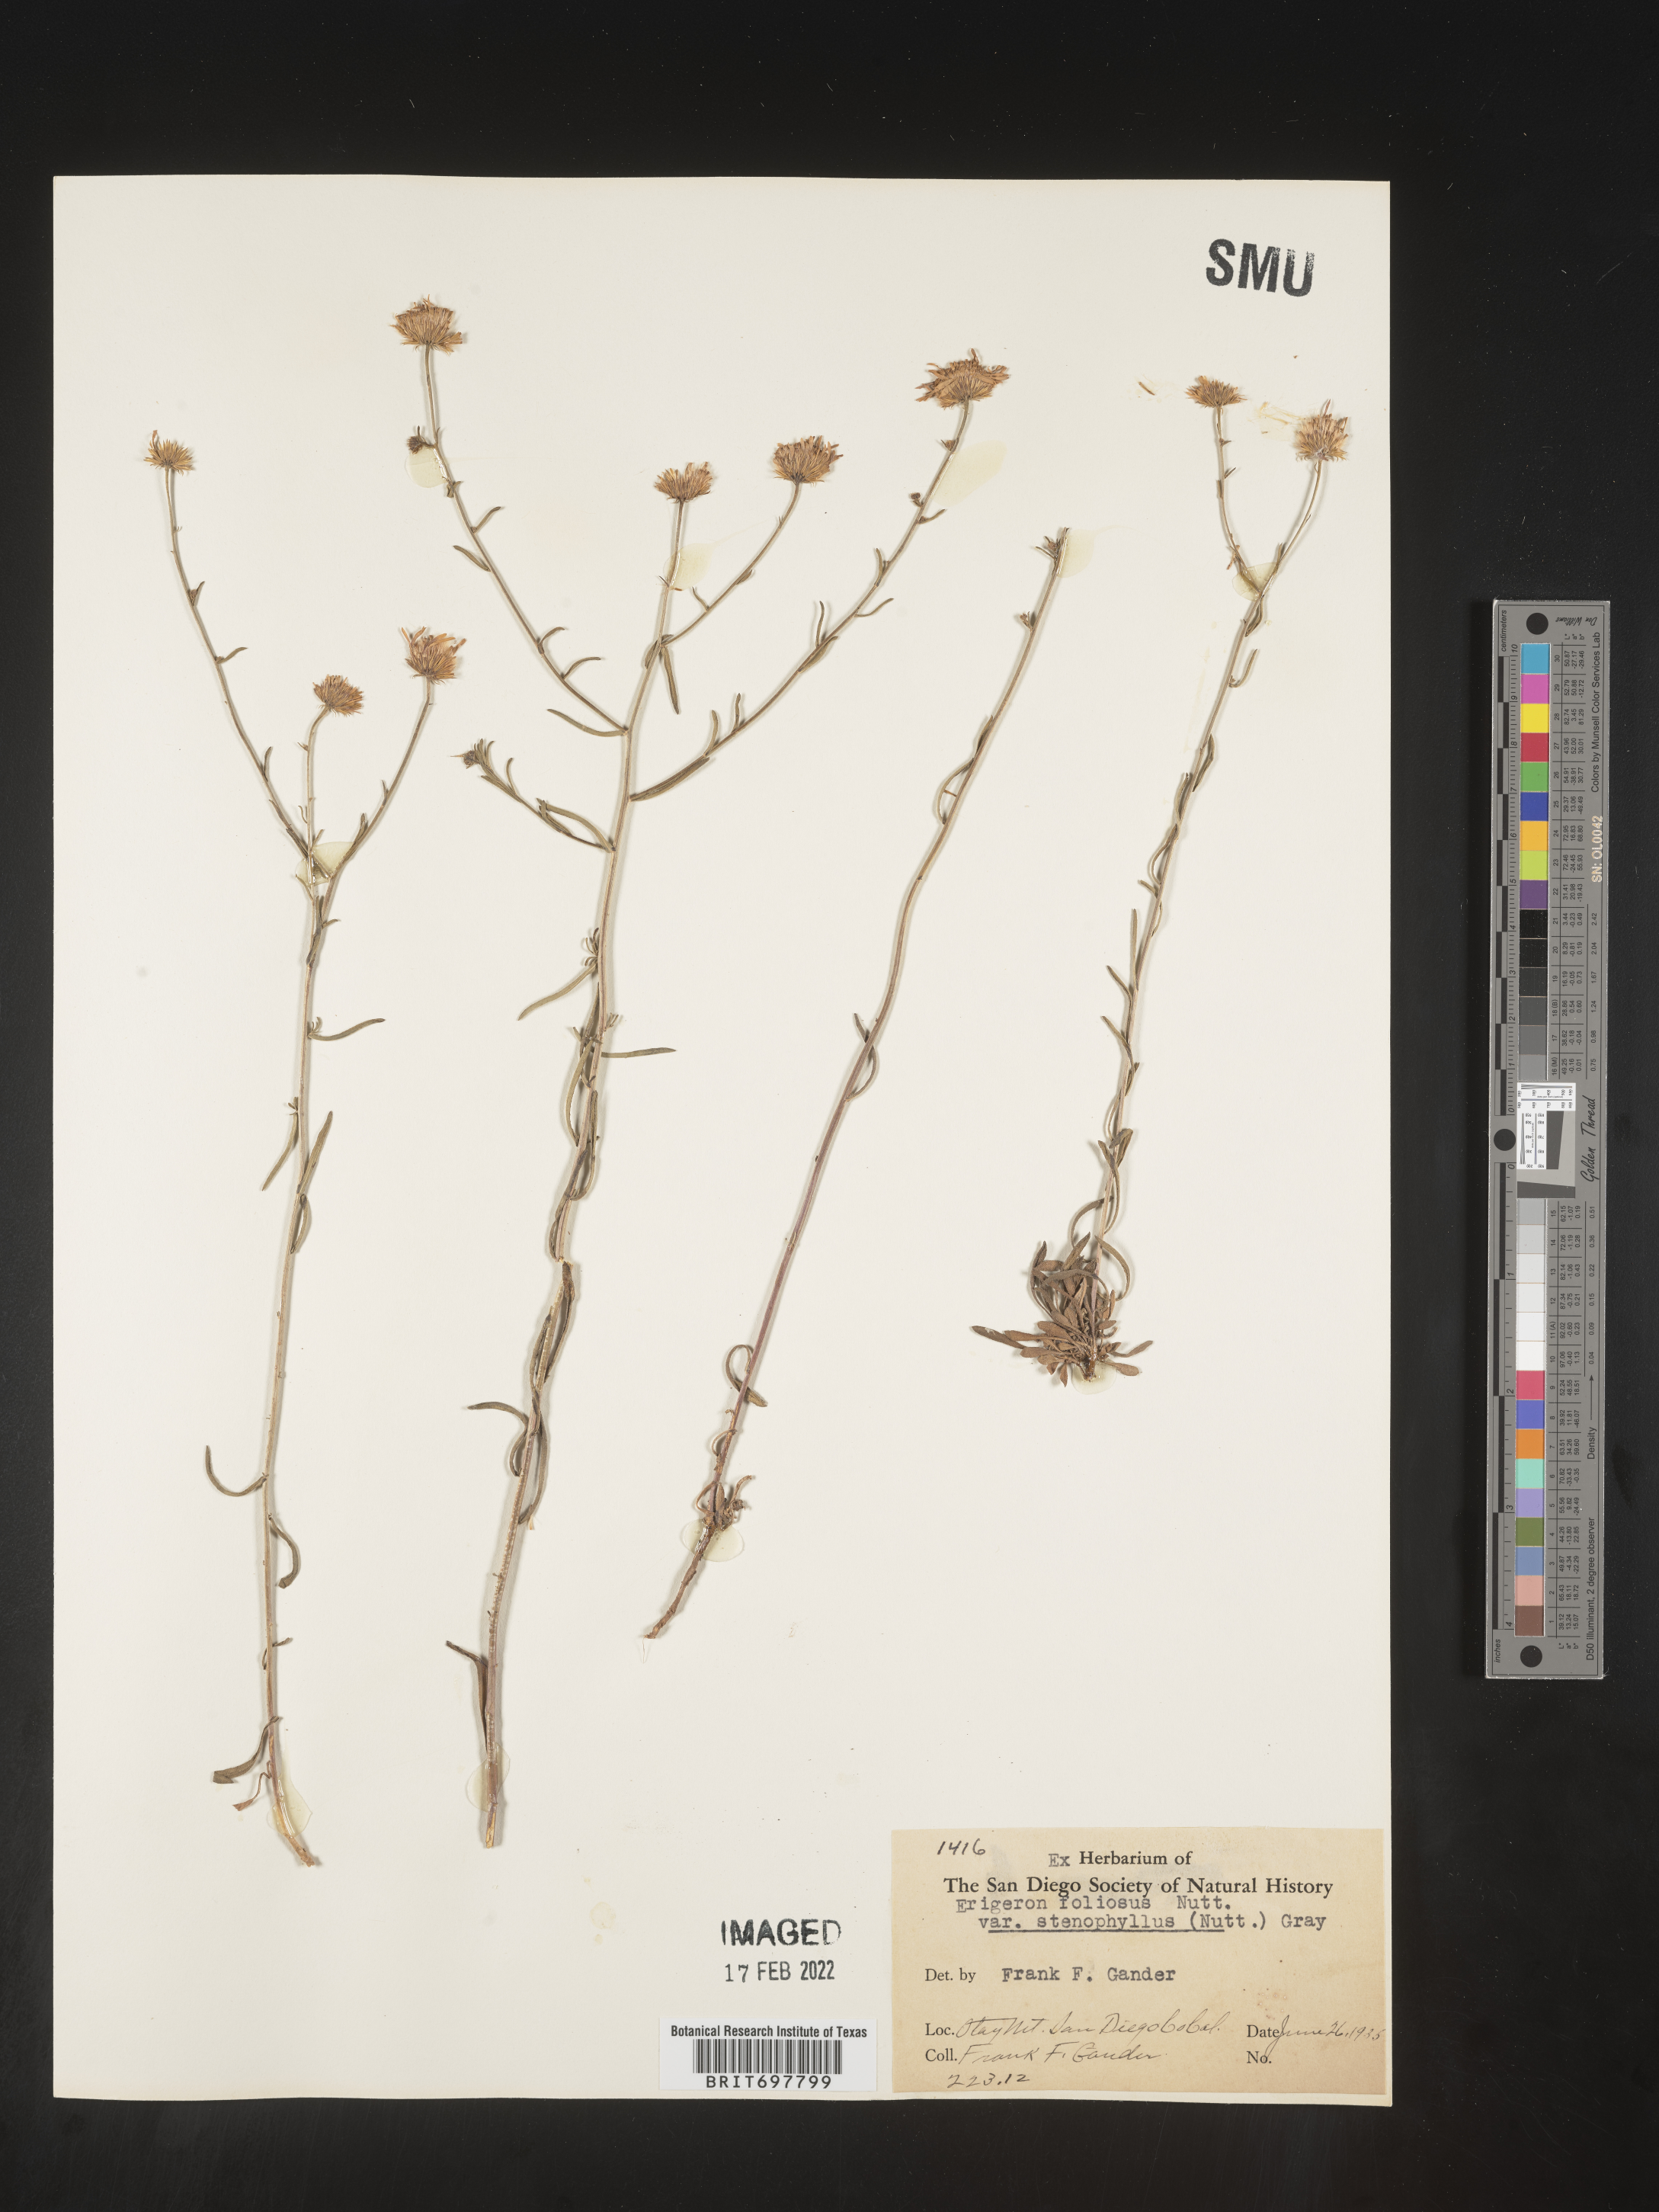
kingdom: Plantae
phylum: Tracheophyta
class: Magnoliopsida
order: Asterales
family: Asteraceae
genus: Erigeron
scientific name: Erigeron foliosus
